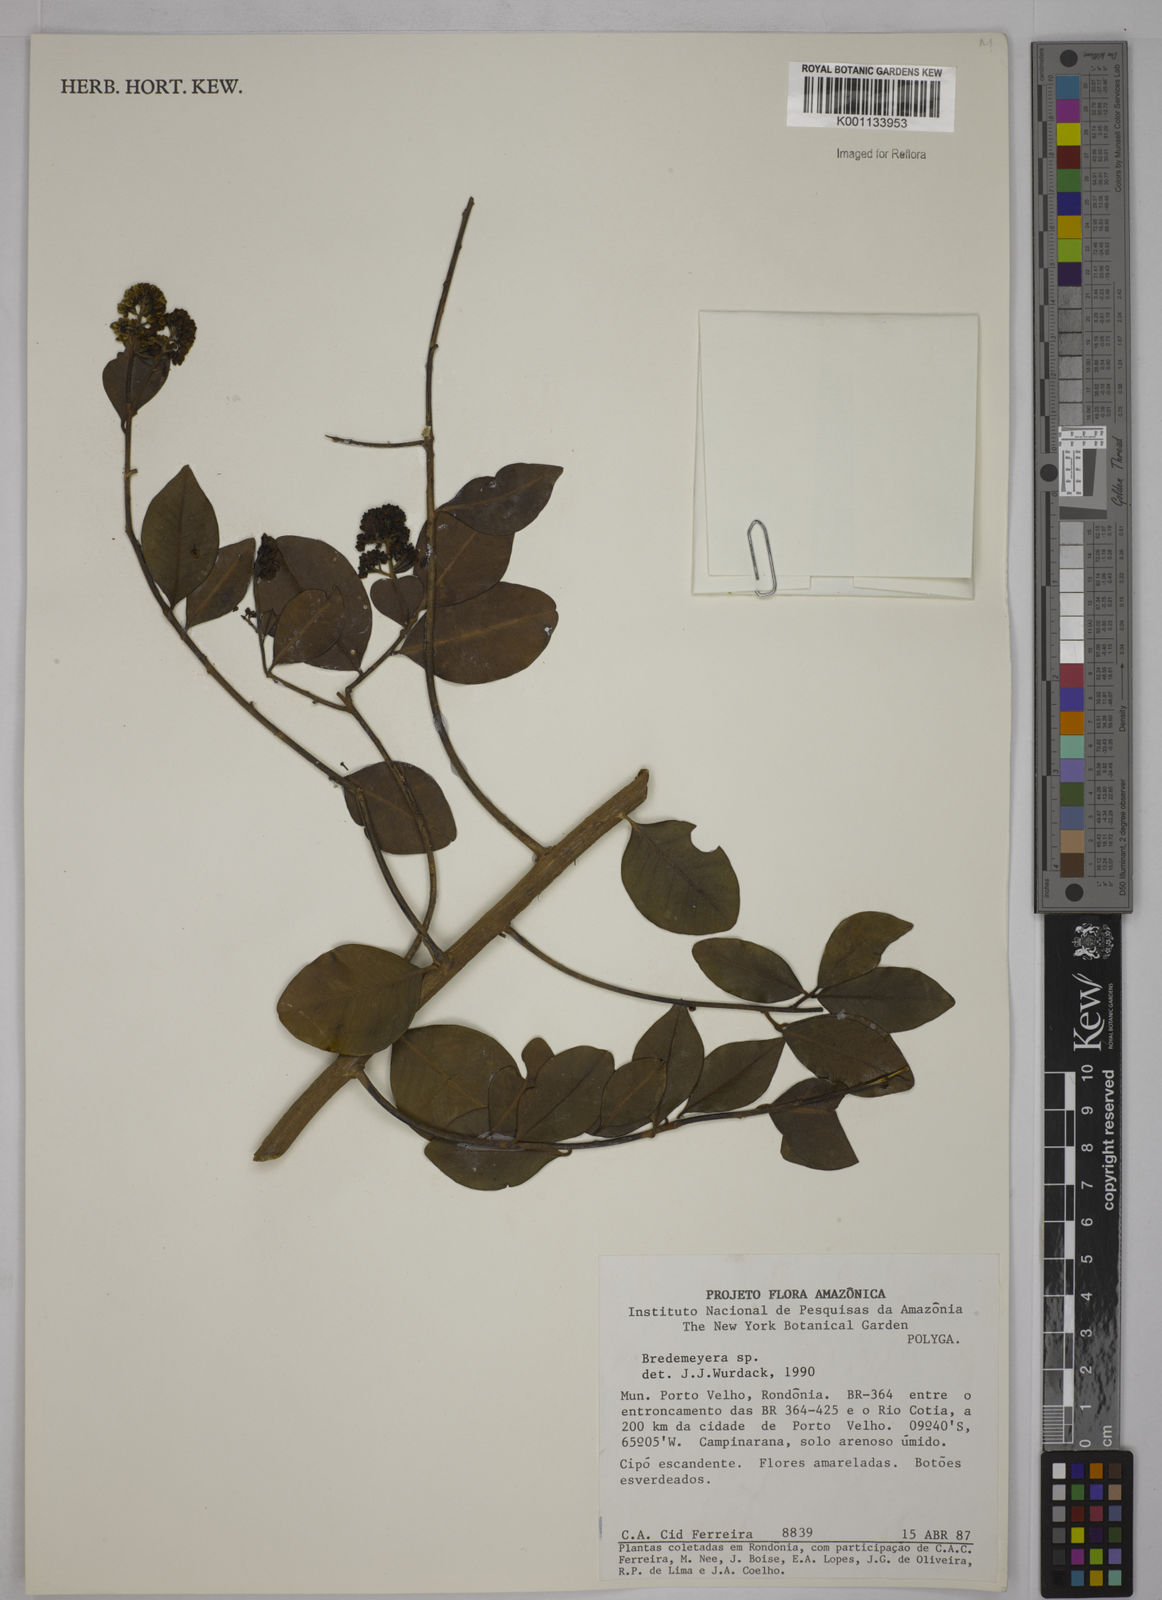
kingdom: Plantae
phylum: Tracheophyta
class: Magnoliopsida
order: Fabales
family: Polygalaceae
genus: Bredemeyera
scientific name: Bredemeyera
